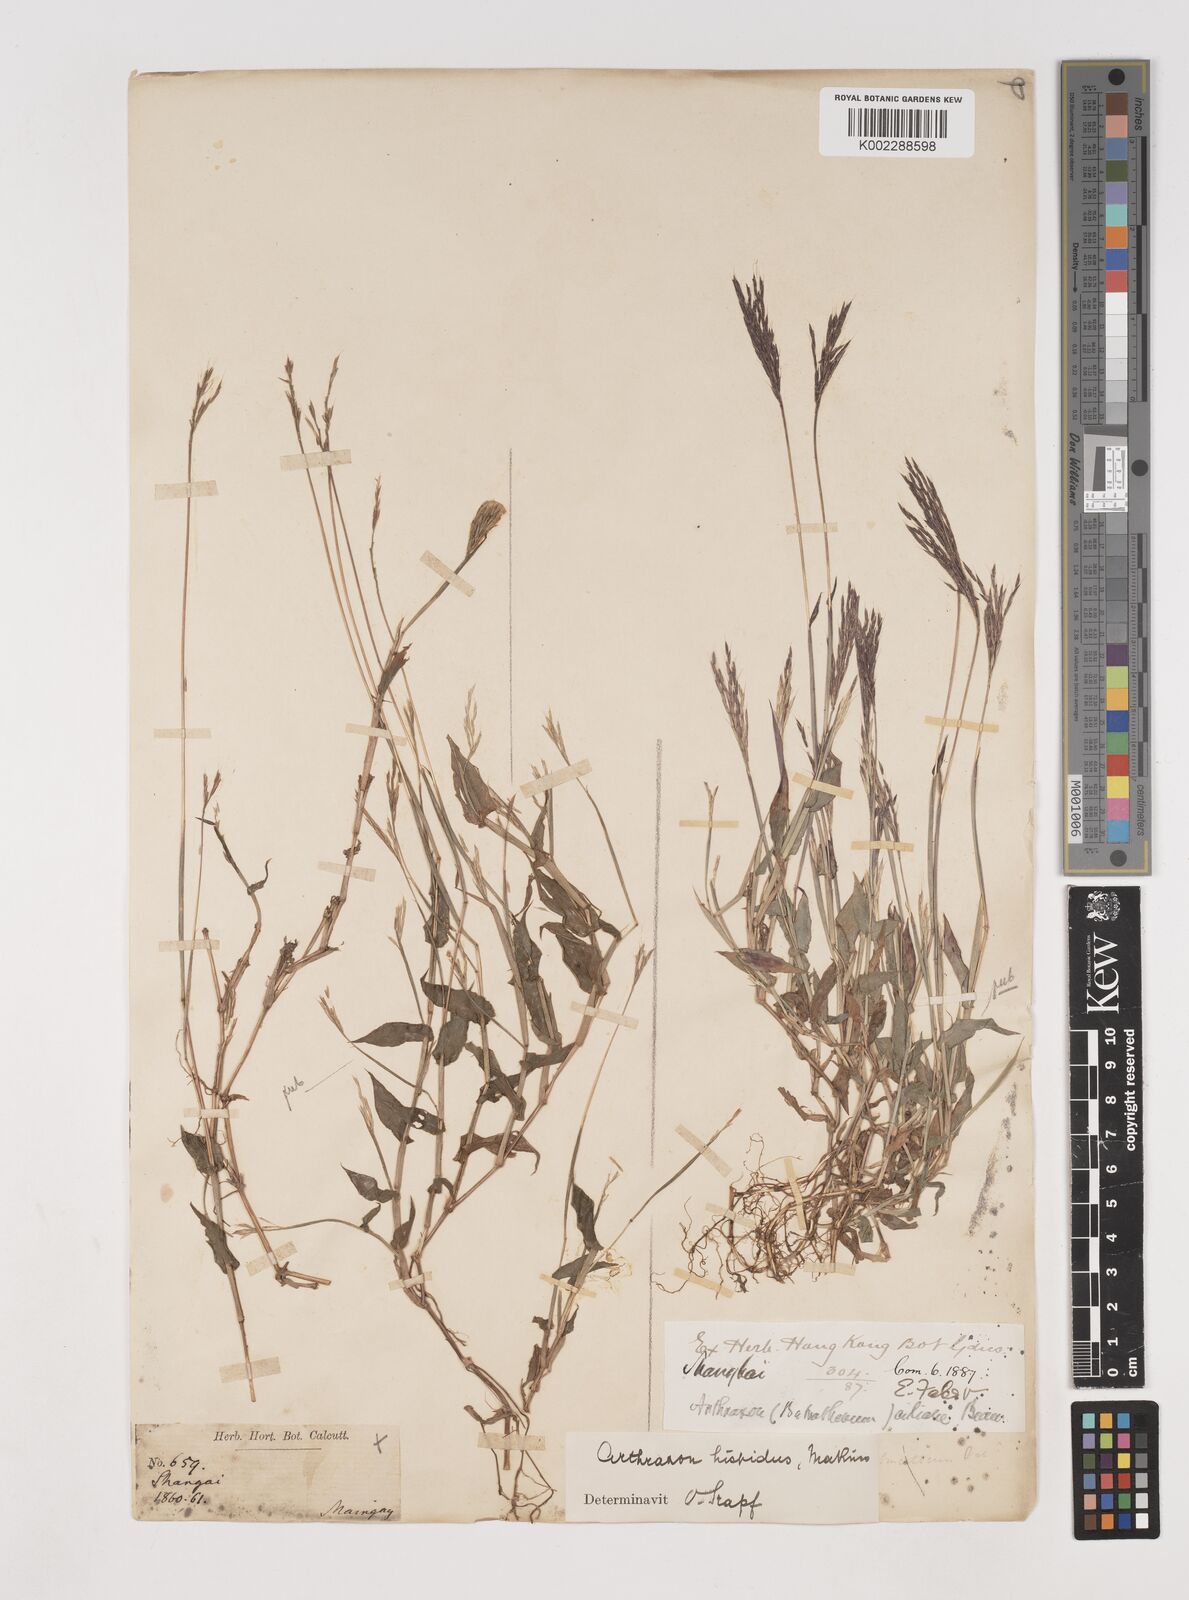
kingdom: Plantae
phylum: Tracheophyta
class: Liliopsida
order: Poales
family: Poaceae
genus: Arthraxon
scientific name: Arthraxon hispidus
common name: Small carpgrass
